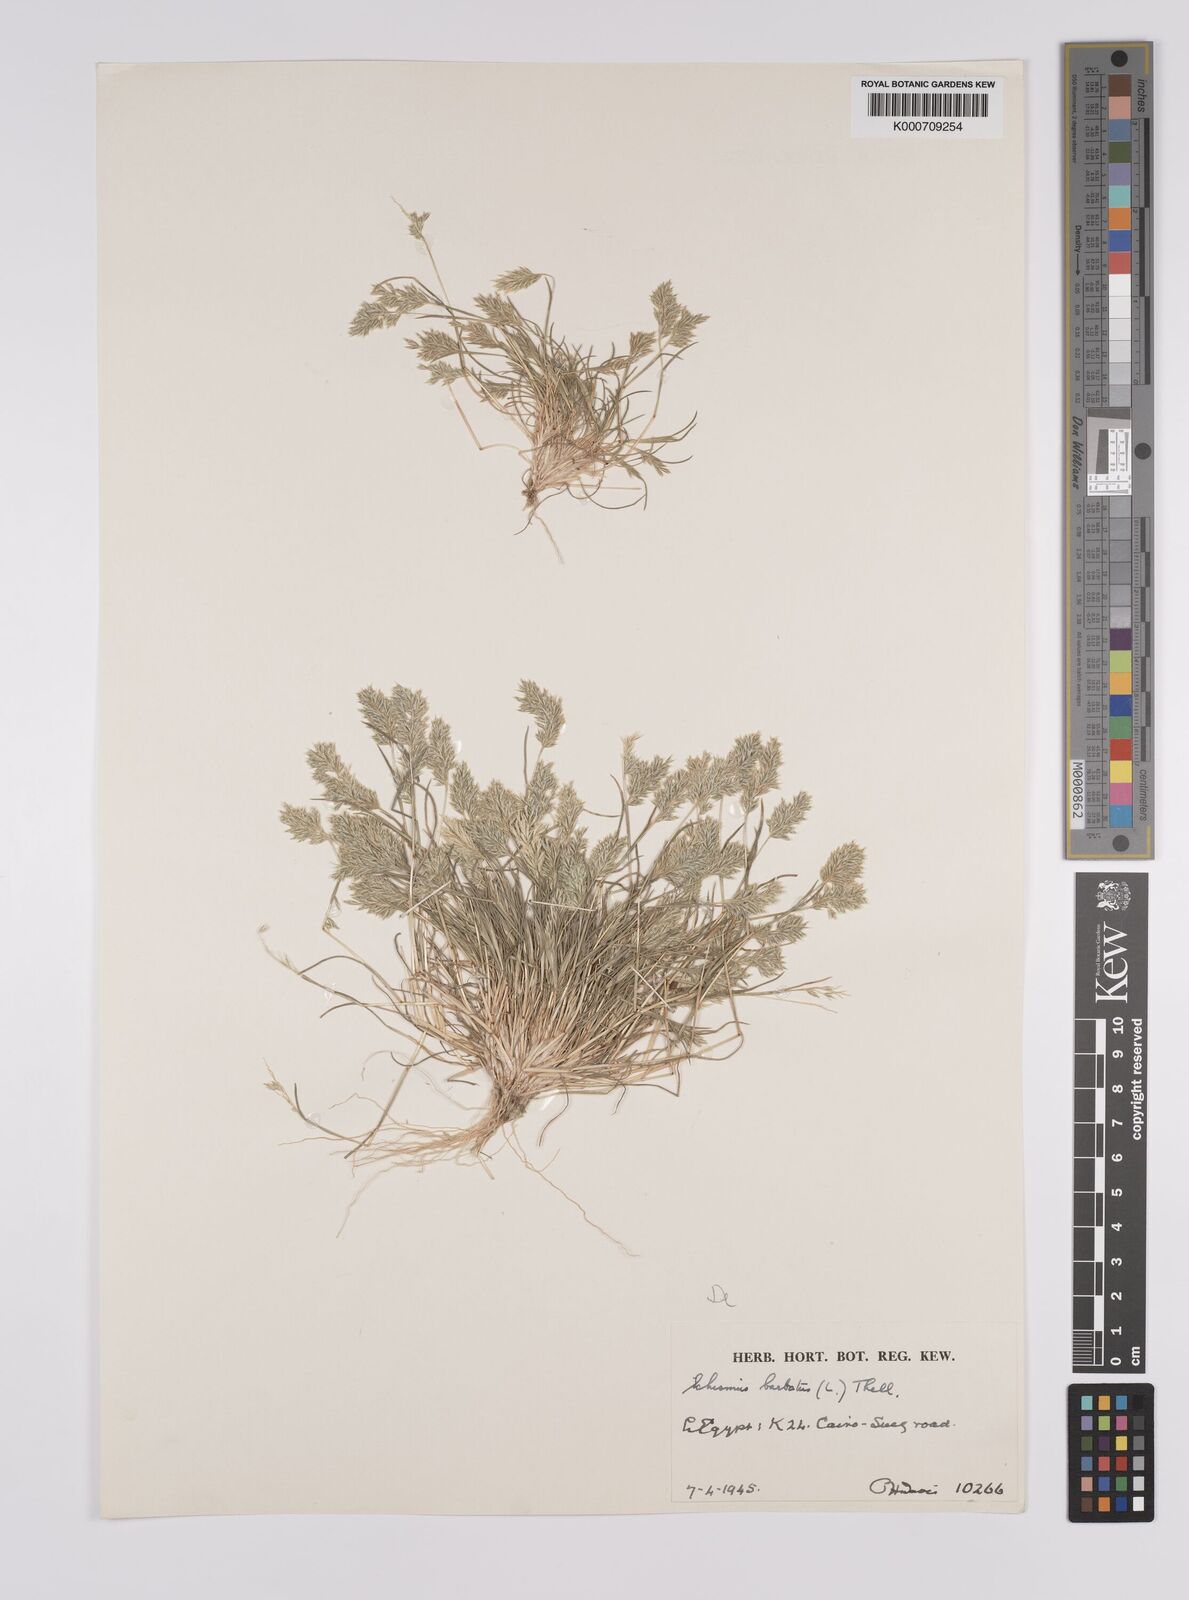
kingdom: Plantae
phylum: Tracheophyta
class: Liliopsida
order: Poales
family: Poaceae
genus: Schismus
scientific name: Schismus barbatus
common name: Kelch-grass
